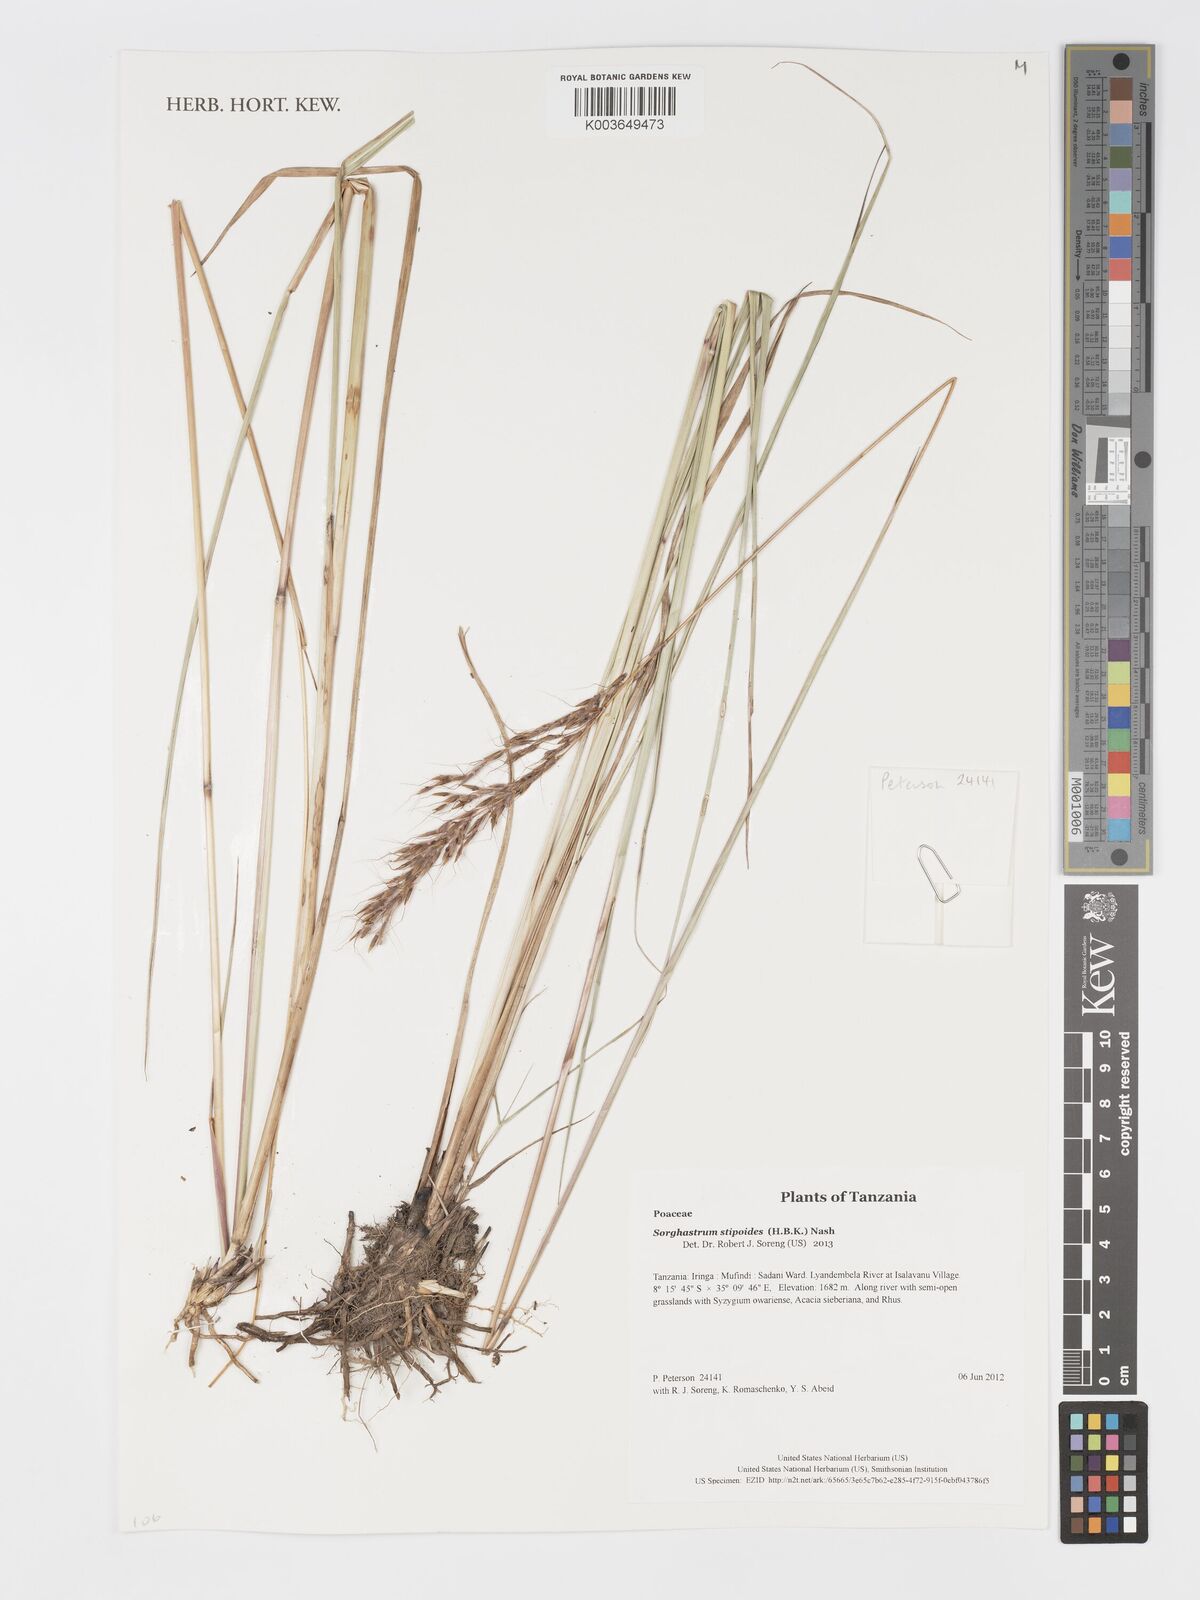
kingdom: Plantae
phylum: Tracheophyta
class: Liliopsida
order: Poales
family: Poaceae
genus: Sorghastrum
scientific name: Sorghastrum stipoides
